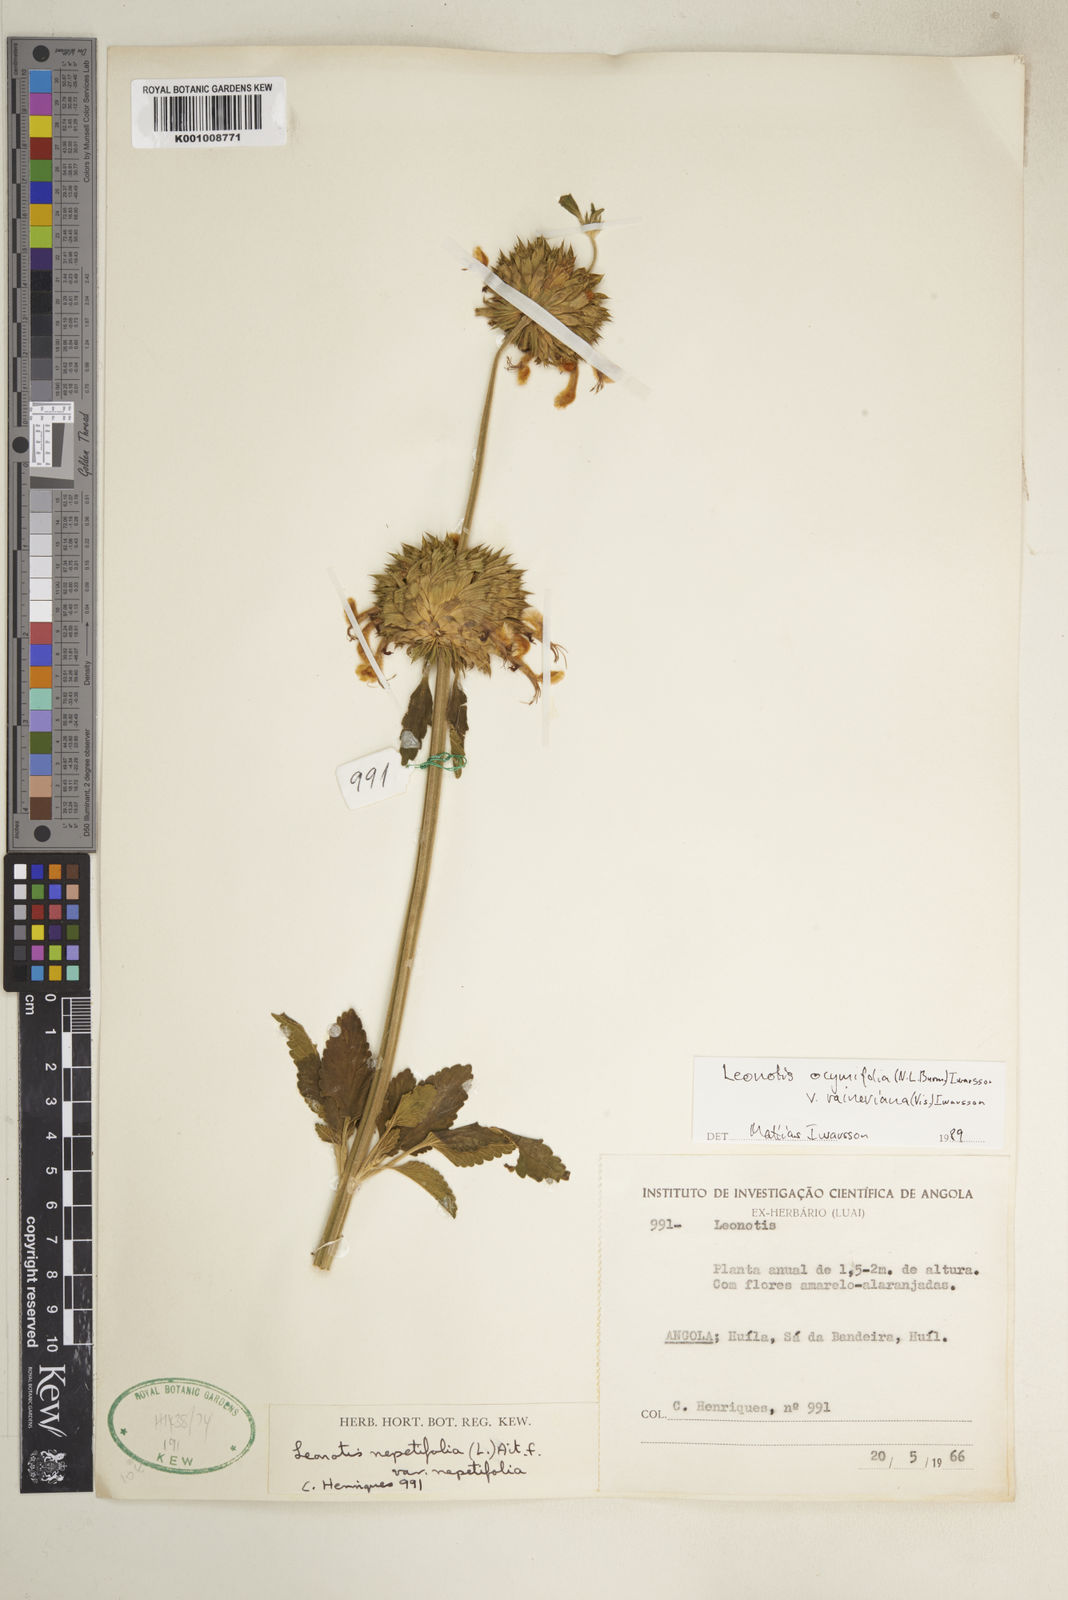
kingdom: Plantae
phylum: Tracheophyta
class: Magnoliopsida
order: Lamiales
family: Lamiaceae
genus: Leonotis
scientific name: Leonotis ocymifolia
